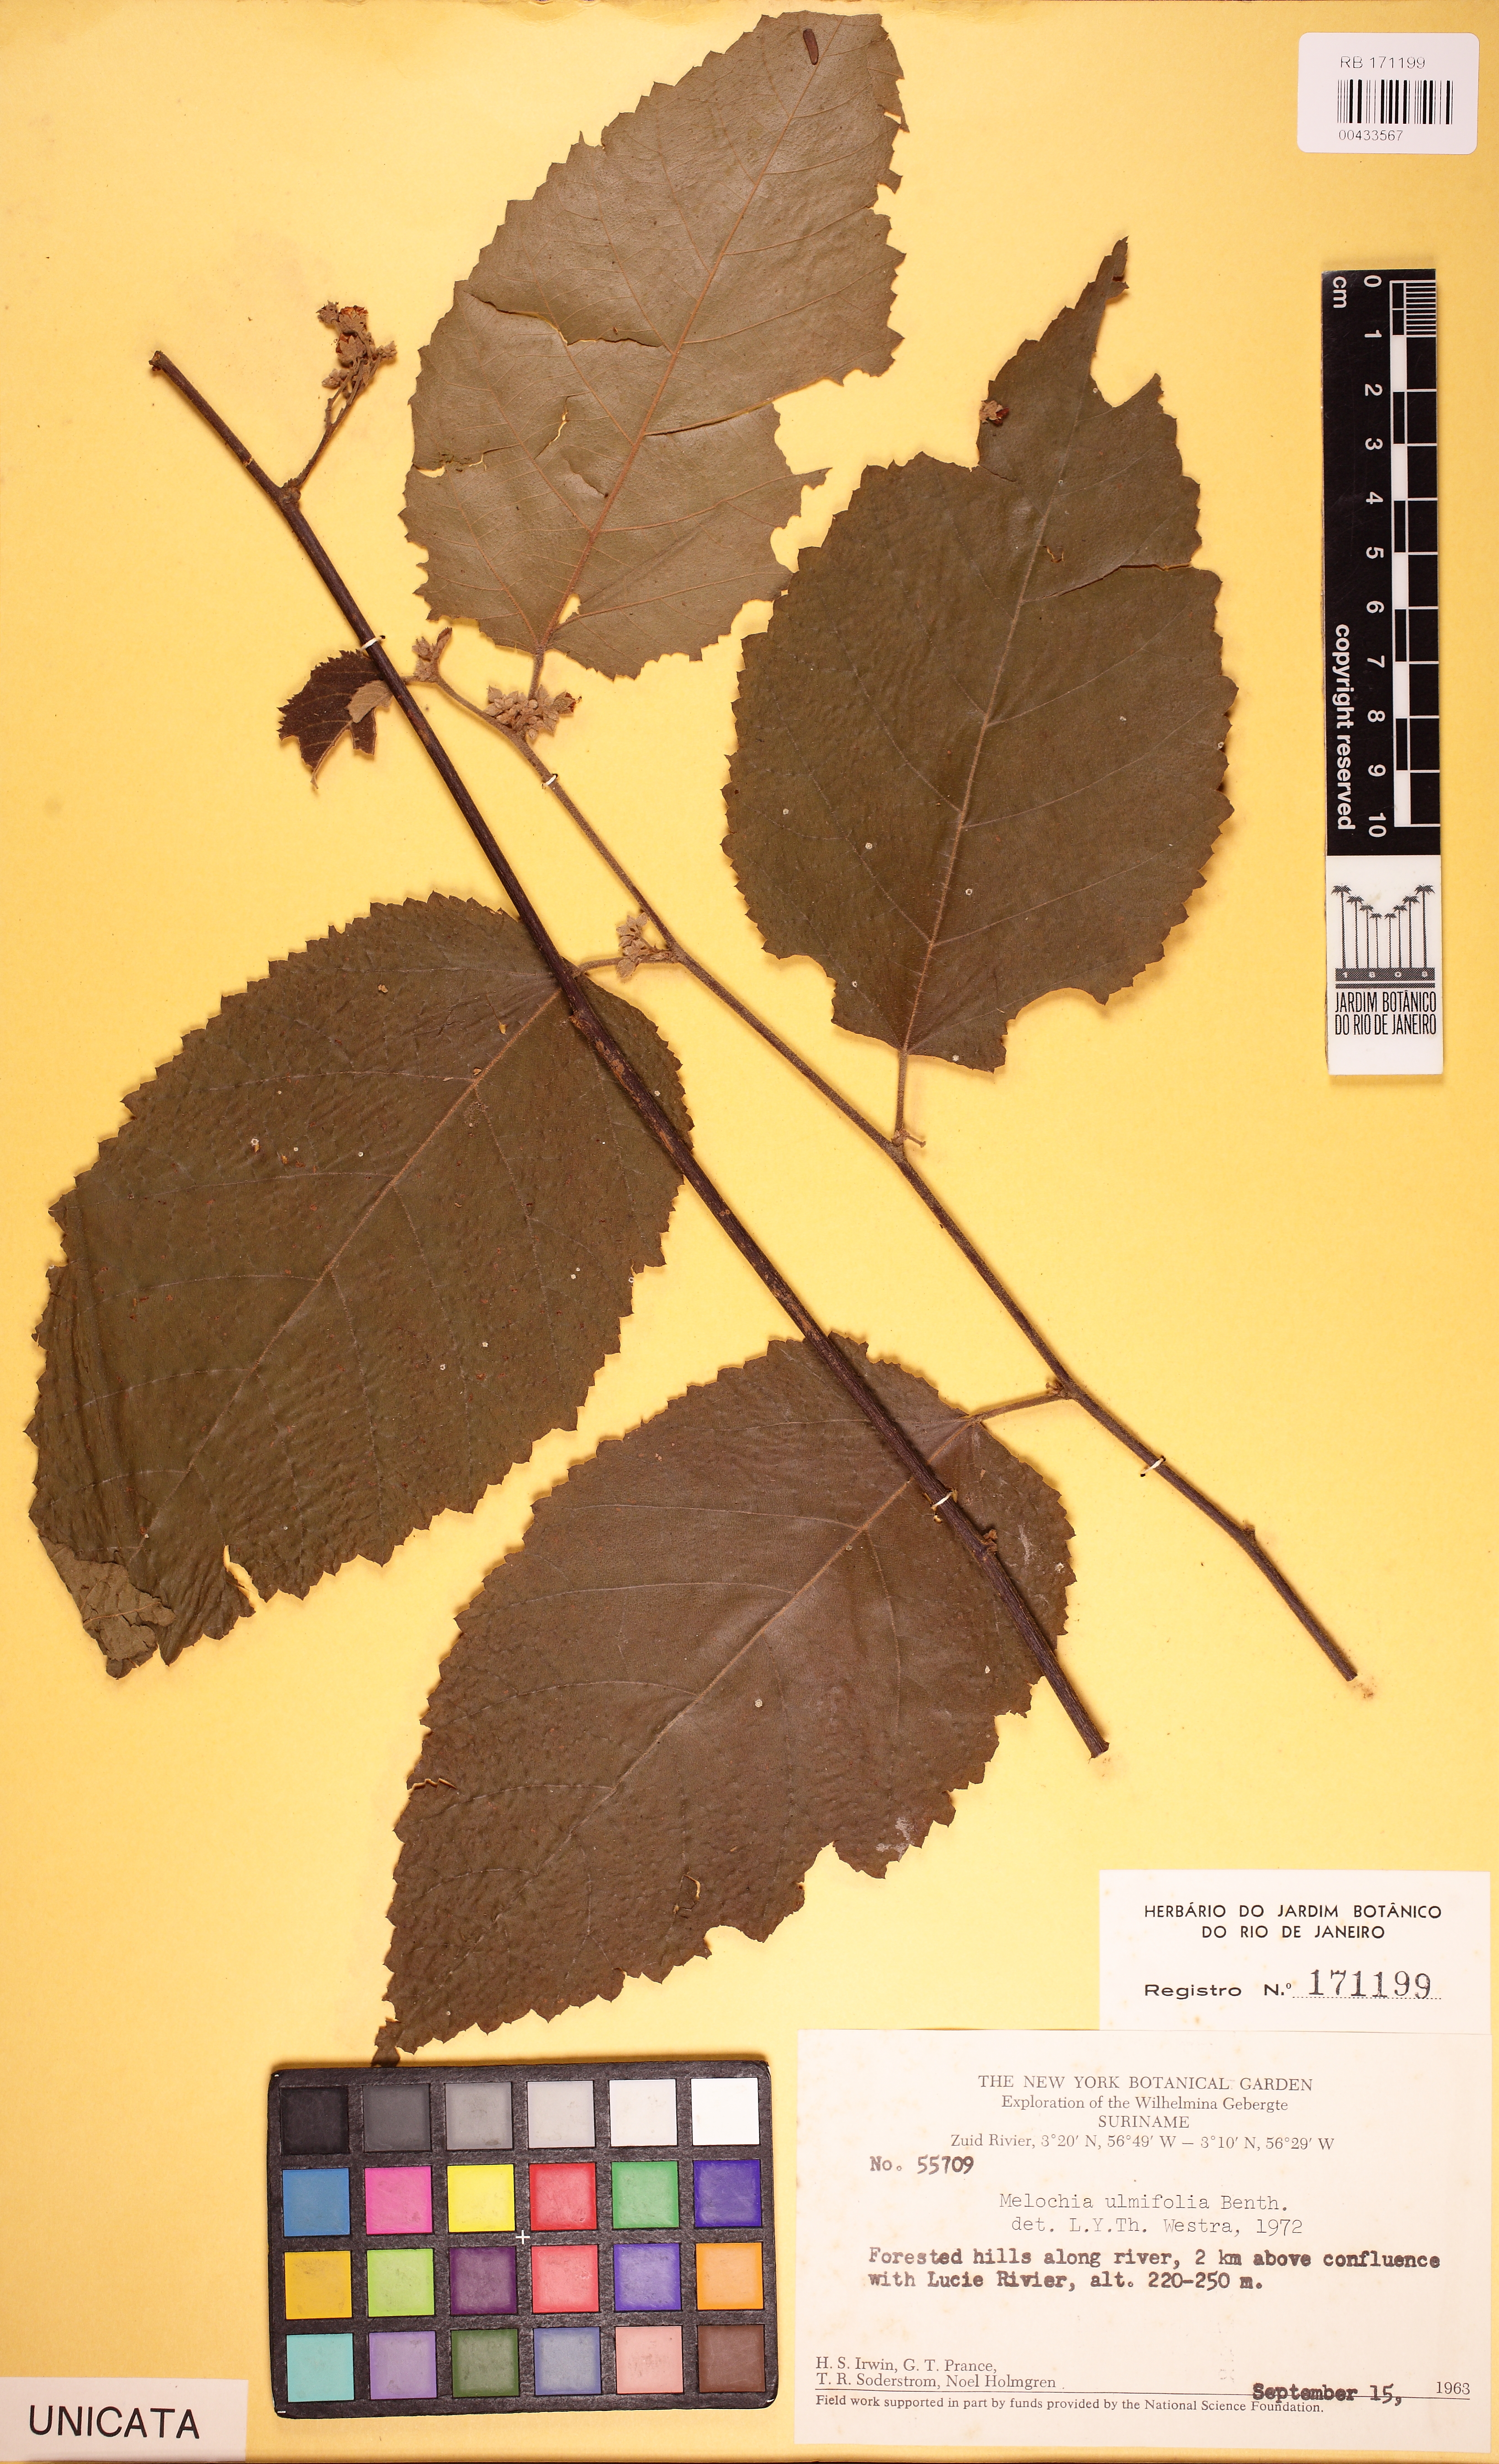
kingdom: Plantae
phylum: Tracheophyta
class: Magnoliopsida
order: Malvales
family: Malvaceae
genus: Melochia
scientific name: Melochia ulmifolia
